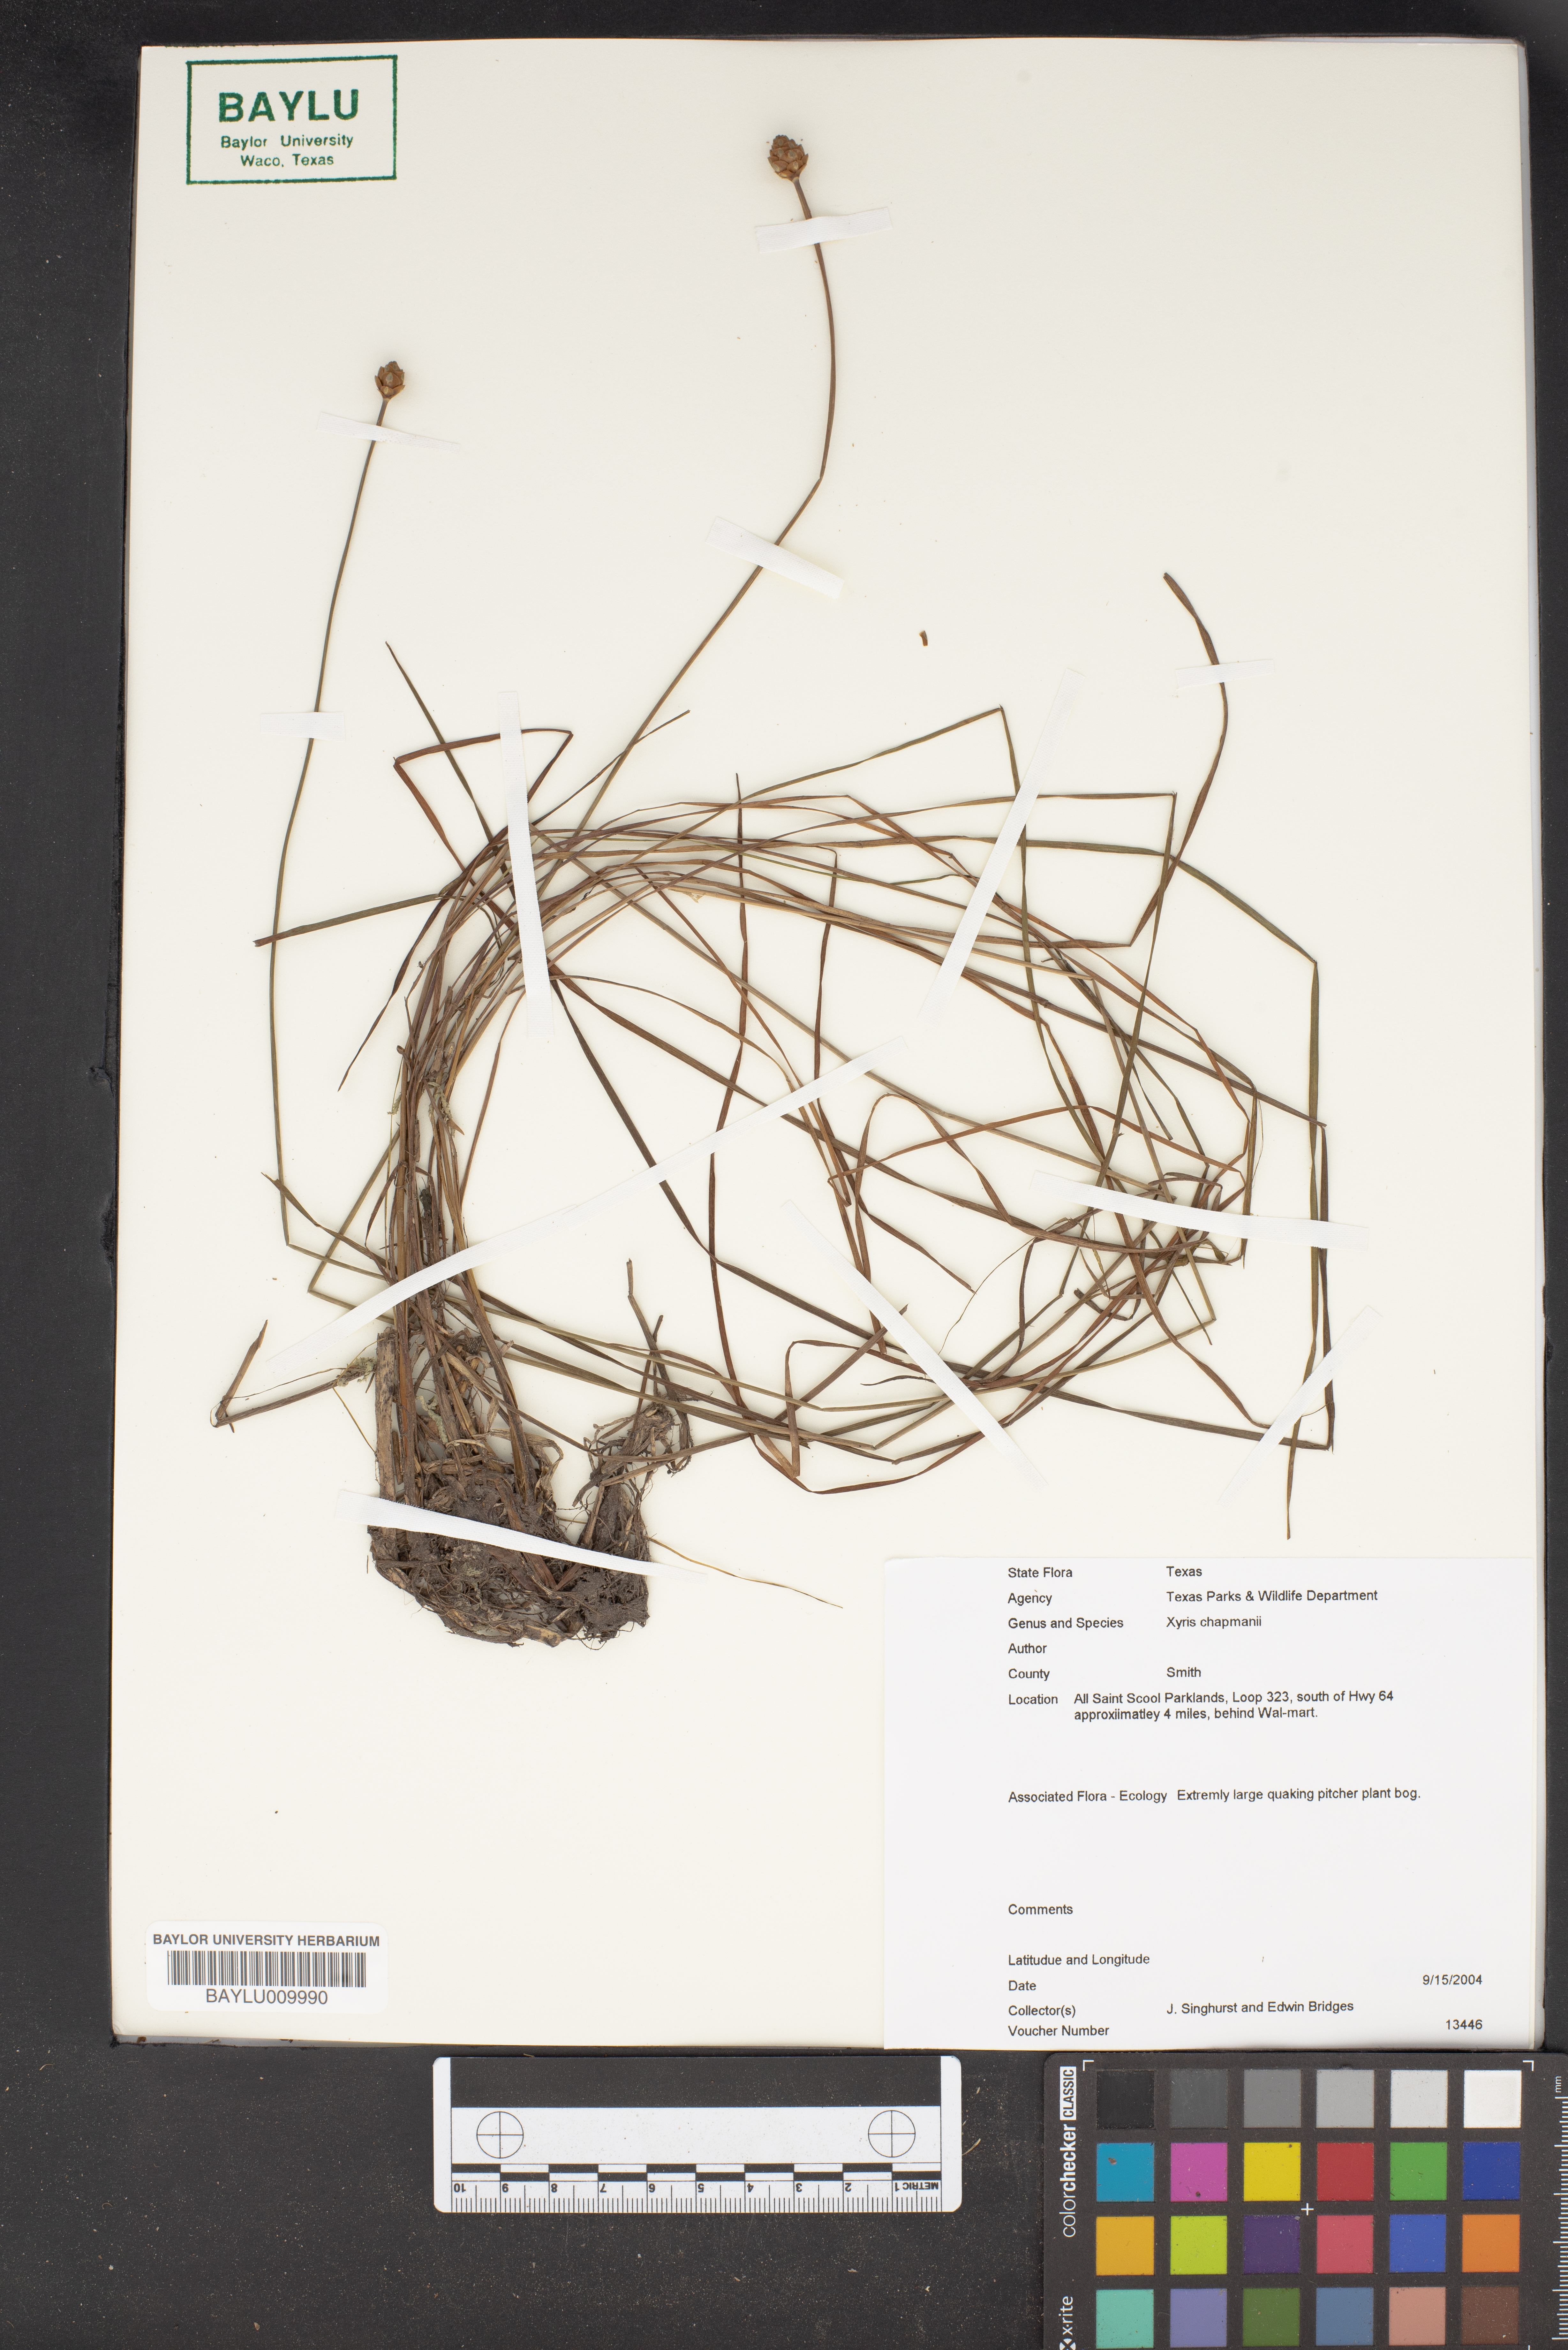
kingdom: Plantae
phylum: Tracheophyta
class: Liliopsida
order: Poales
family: Xyridaceae
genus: Xyris
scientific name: Xyris chapmanii
